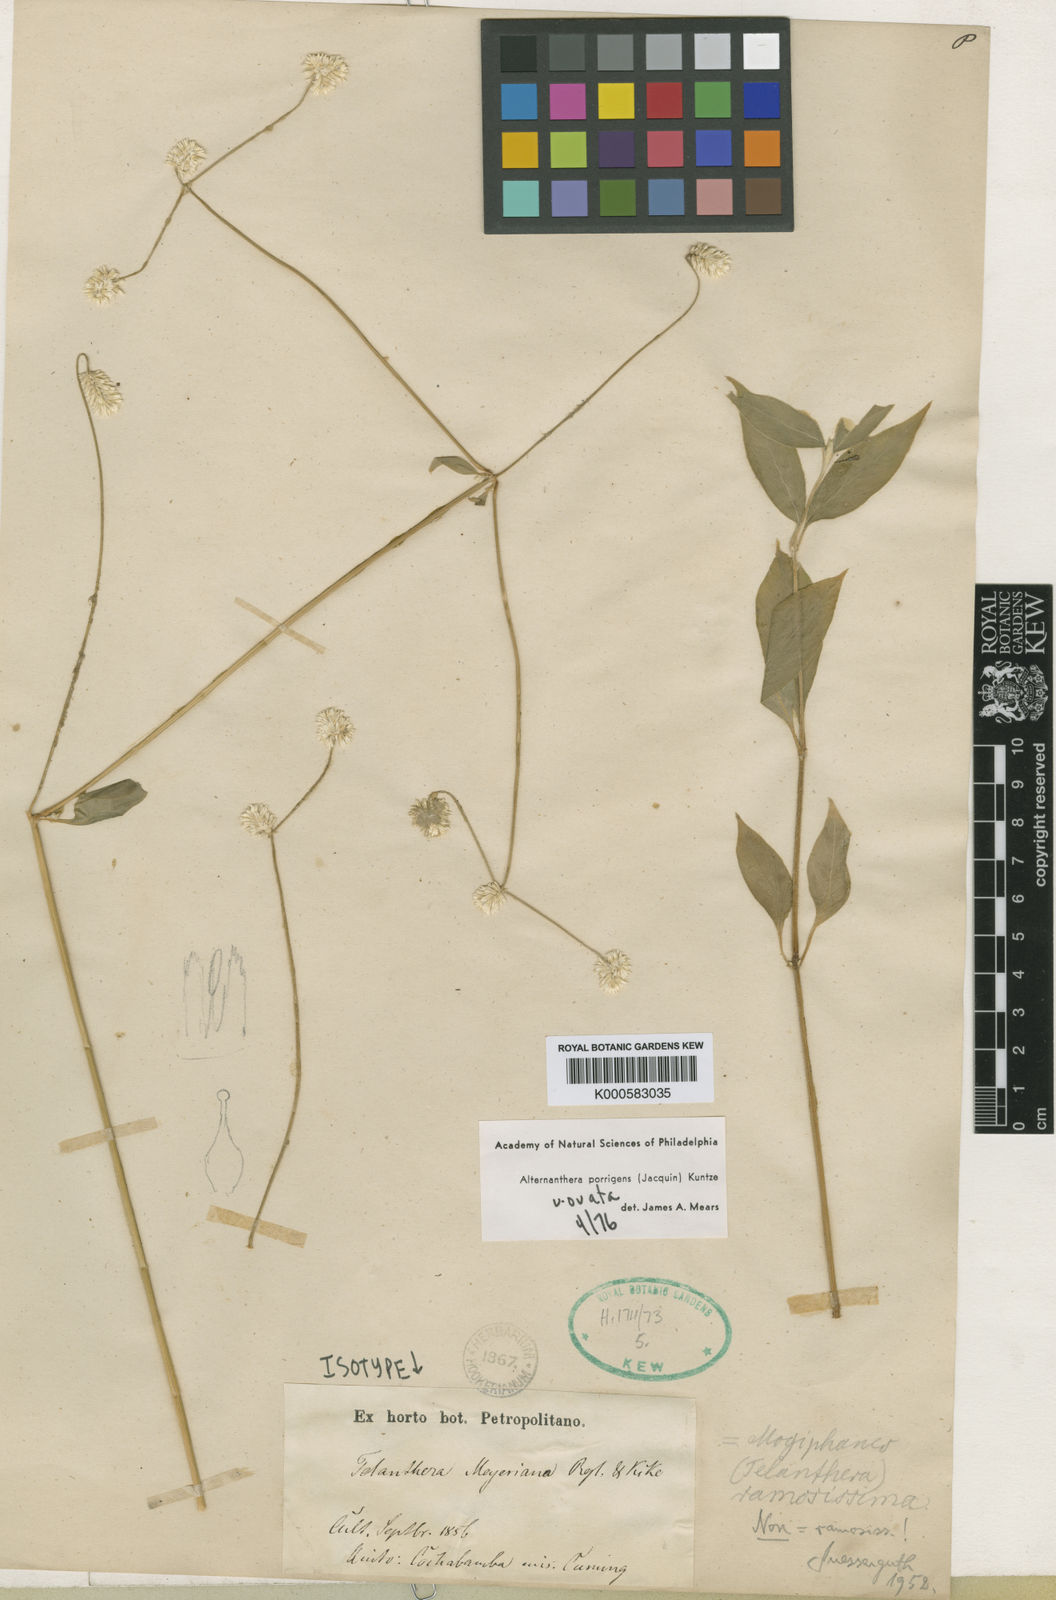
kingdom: Plantae
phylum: Tracheophyta
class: Magnoliopsida
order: Caryophyllales
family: Amaranthaceae
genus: Alternanthera
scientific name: Alternanthera porrigens
